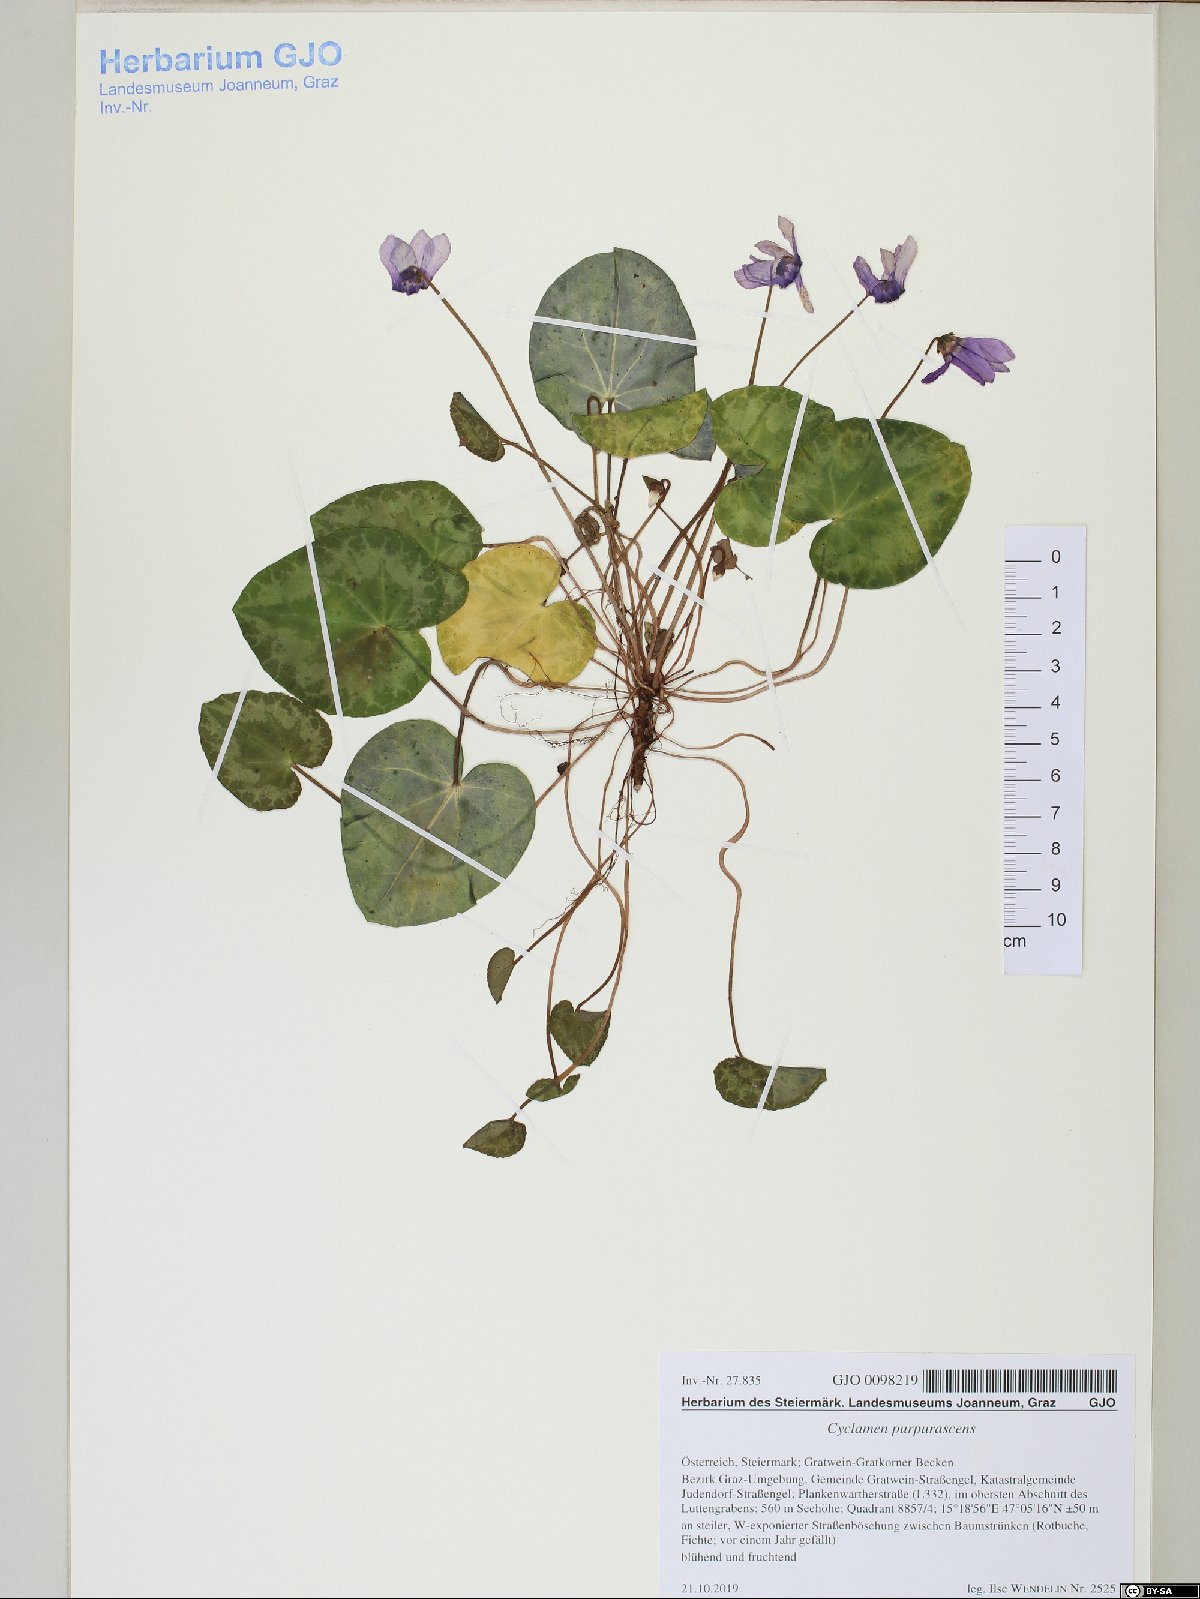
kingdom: Plantae
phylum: Tracheophyta
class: Magnoliopsida
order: Ericales
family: Primulaceae
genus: Cyclamen
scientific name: Cyclamen purpurascens
